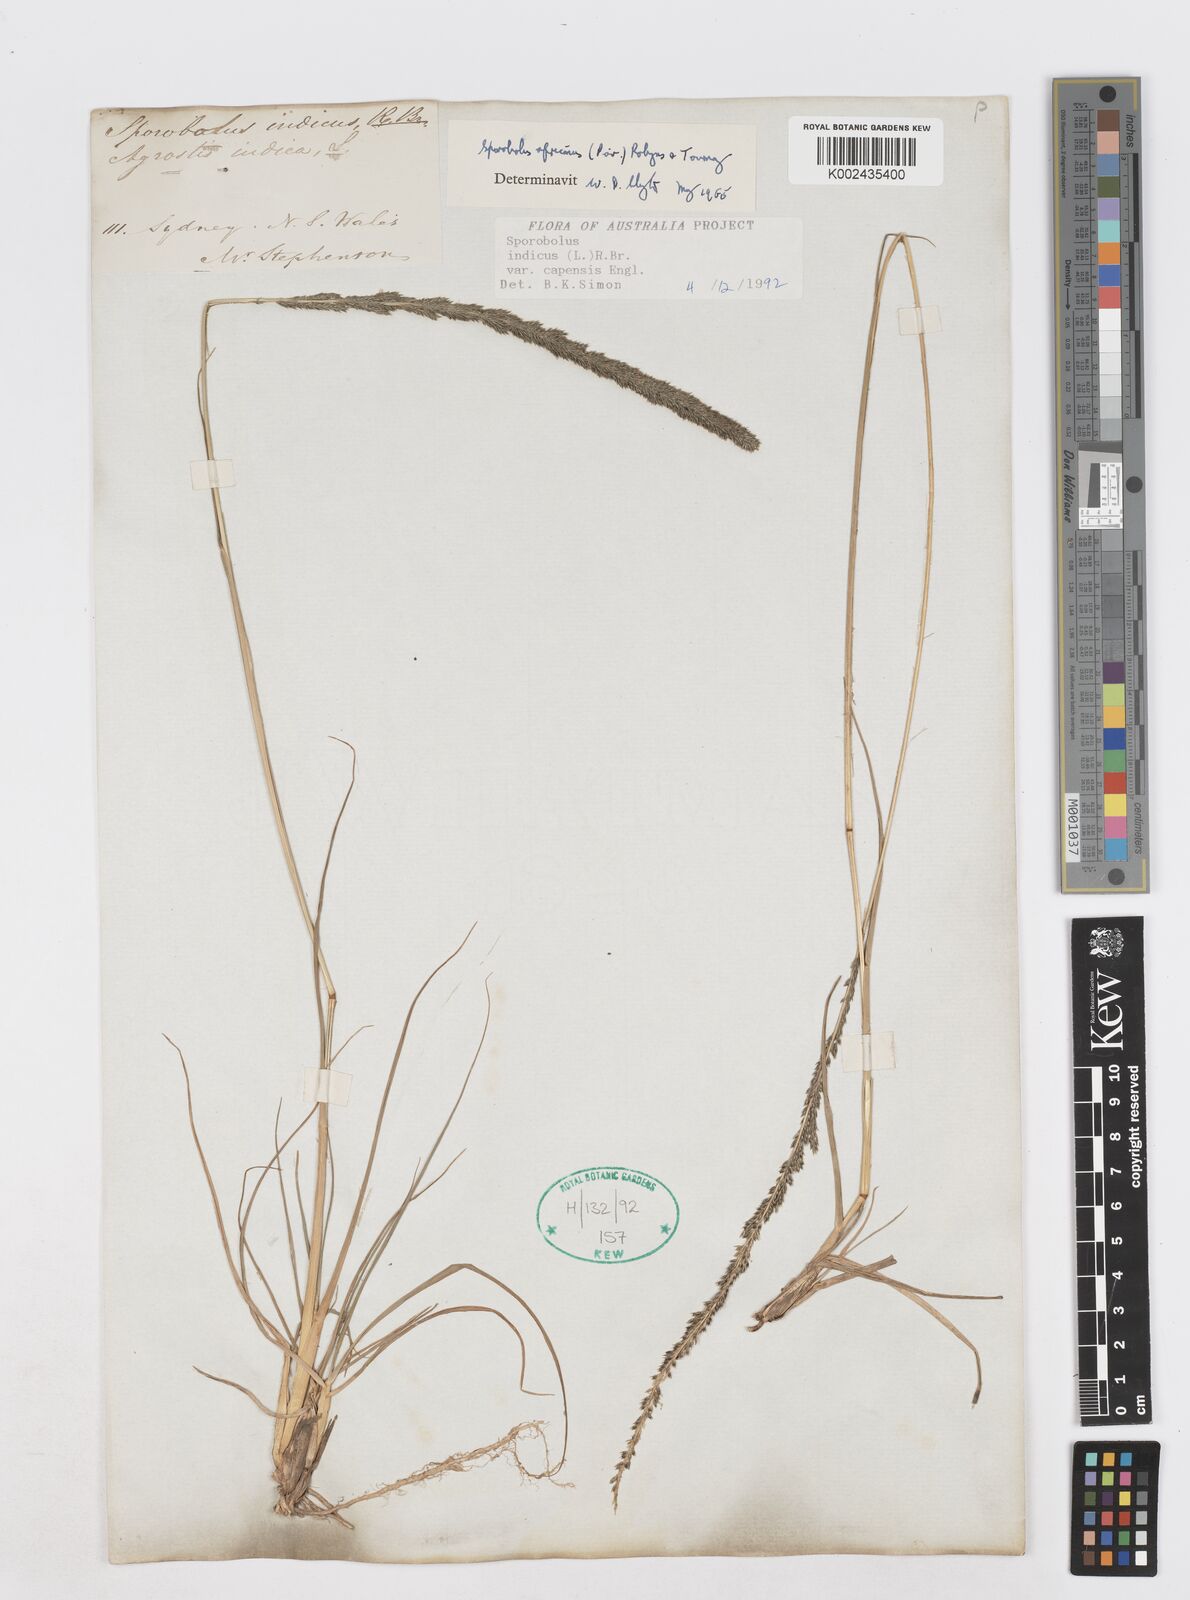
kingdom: Plantae
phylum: Tracheophyta
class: Liliopsida
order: Poales
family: Poaceae
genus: Sporobolus
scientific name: Sporobolus africanus
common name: African dropseed
